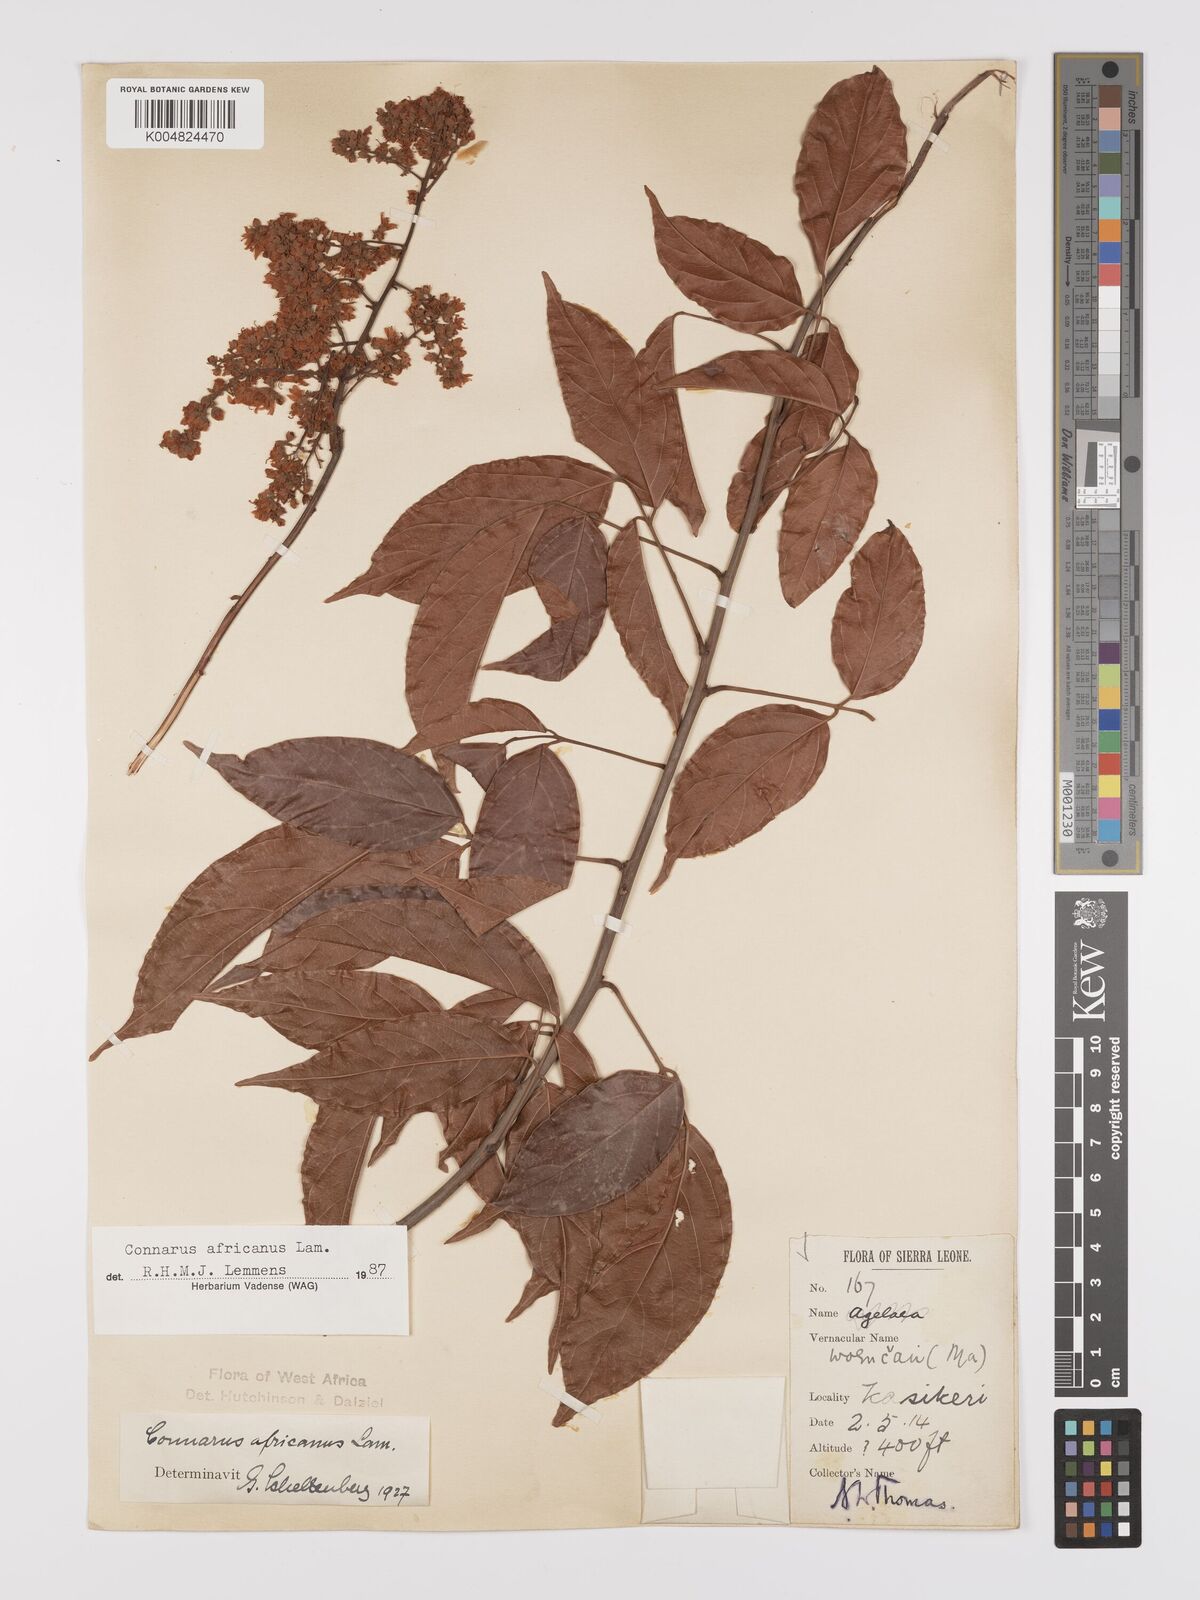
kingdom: Plantae
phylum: Tracheophyta
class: Magnoliopsida
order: Oxalidales
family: Connaraceae
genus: Connarus
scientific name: Connarus africanus
